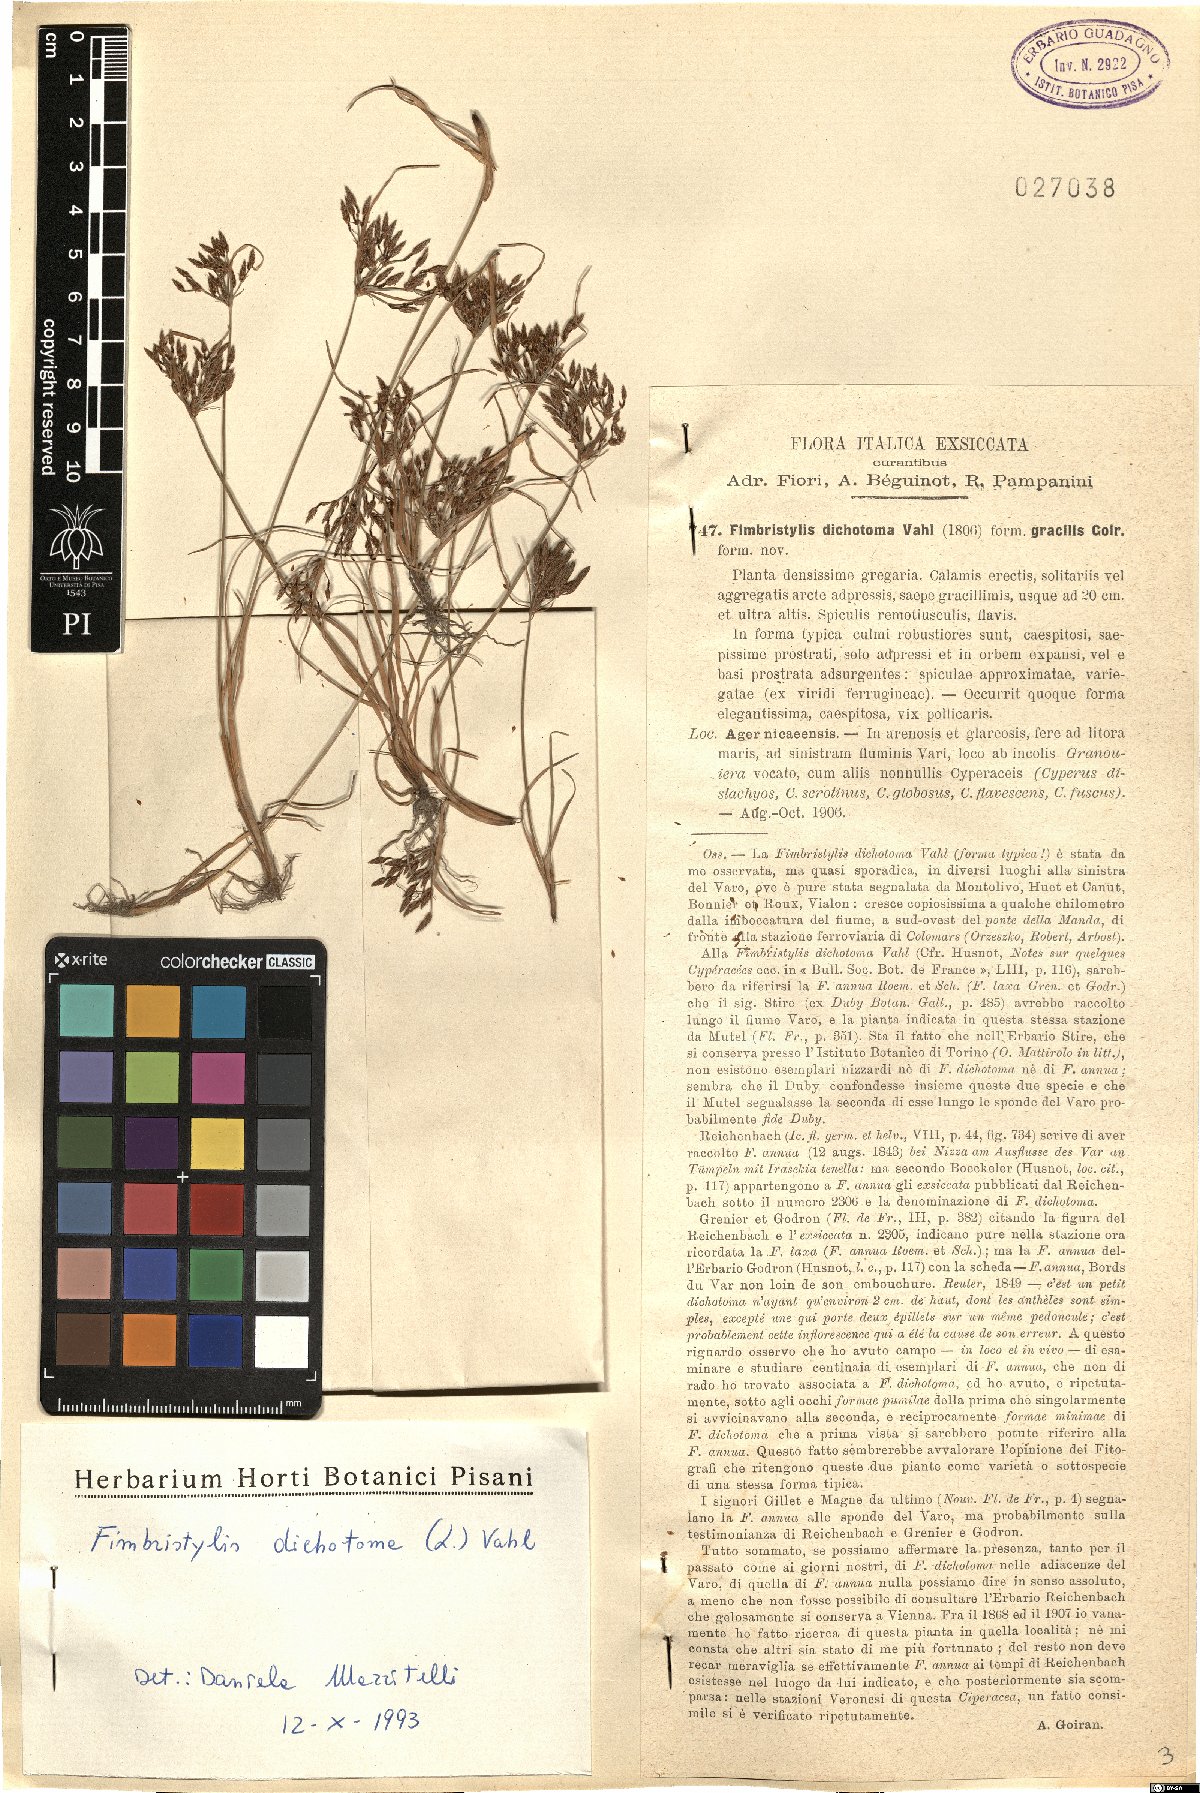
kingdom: Plantae
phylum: Tracheophyta
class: Liliopsida
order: Poales
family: Cyperaceae
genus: Fimbristylis
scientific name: Fimbristylis dichotoma
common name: Forked fimbry
